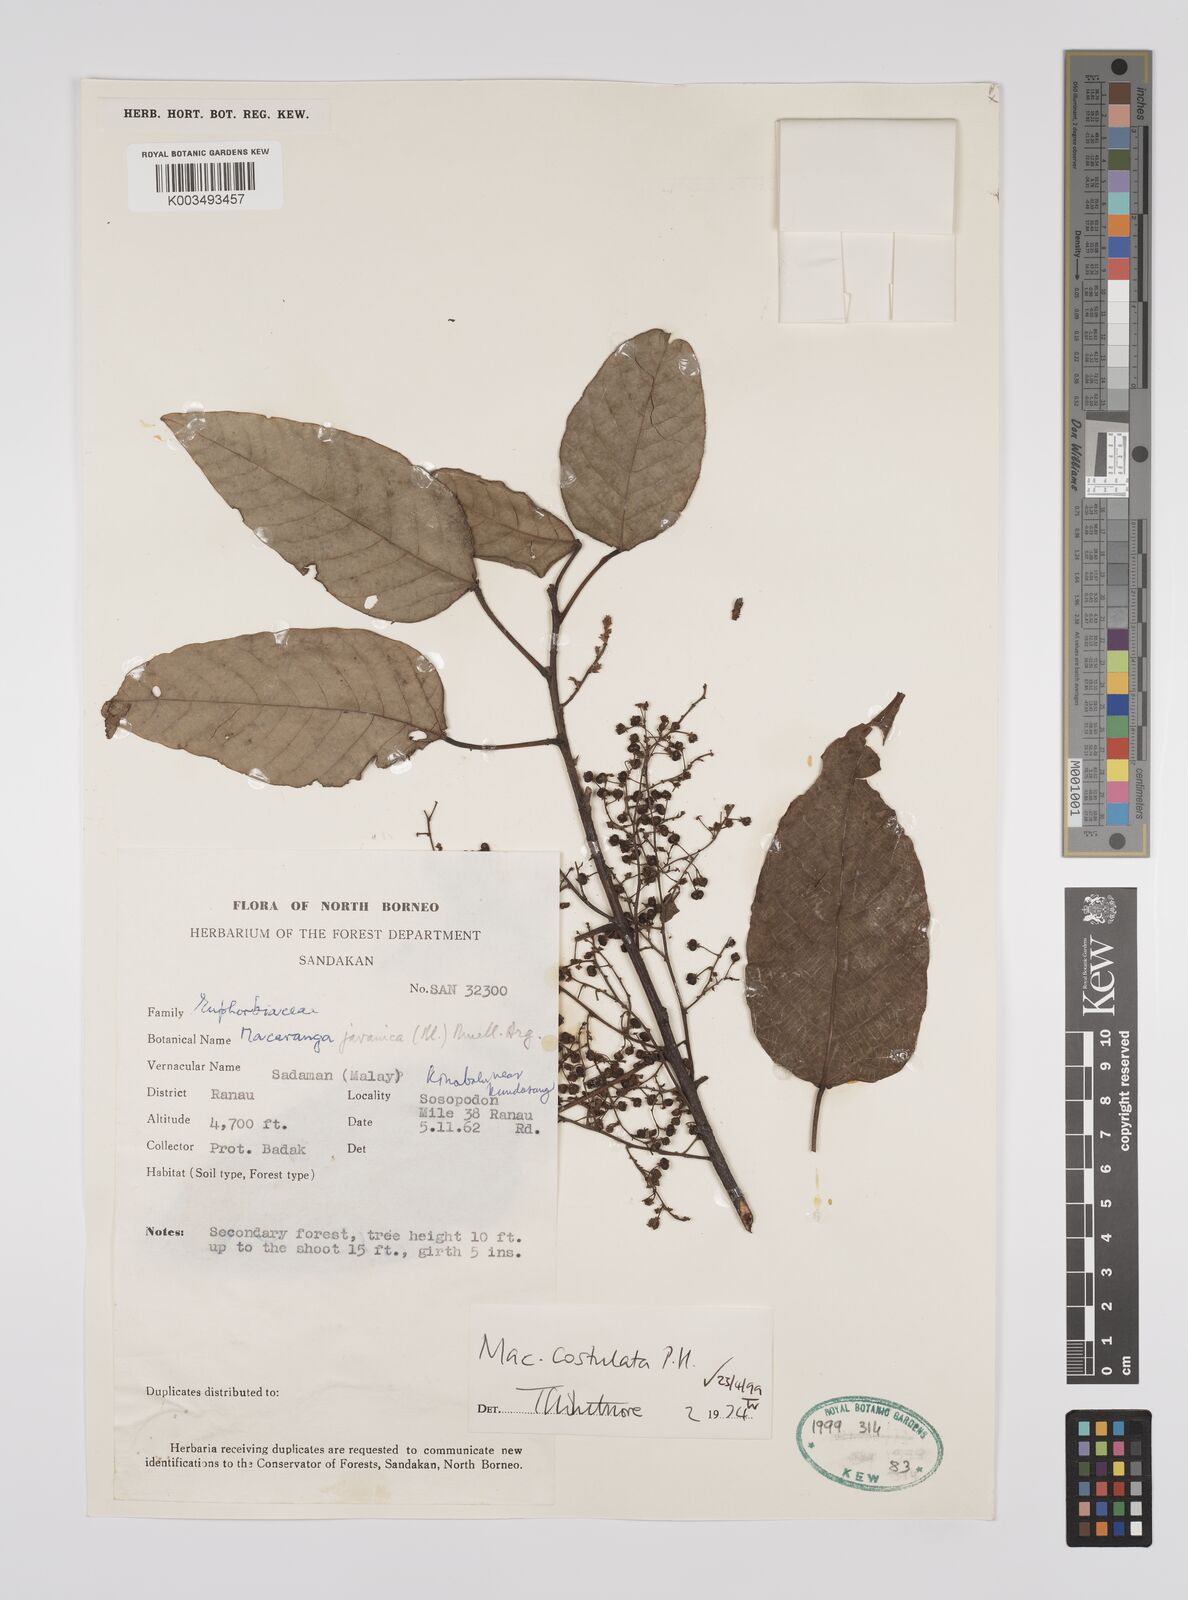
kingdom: Plantae
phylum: Tracheophyta
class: Magnoliopsida
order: Malpighiales
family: Euphorbiaceae
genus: Macaranga
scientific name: Macaranga costulata
